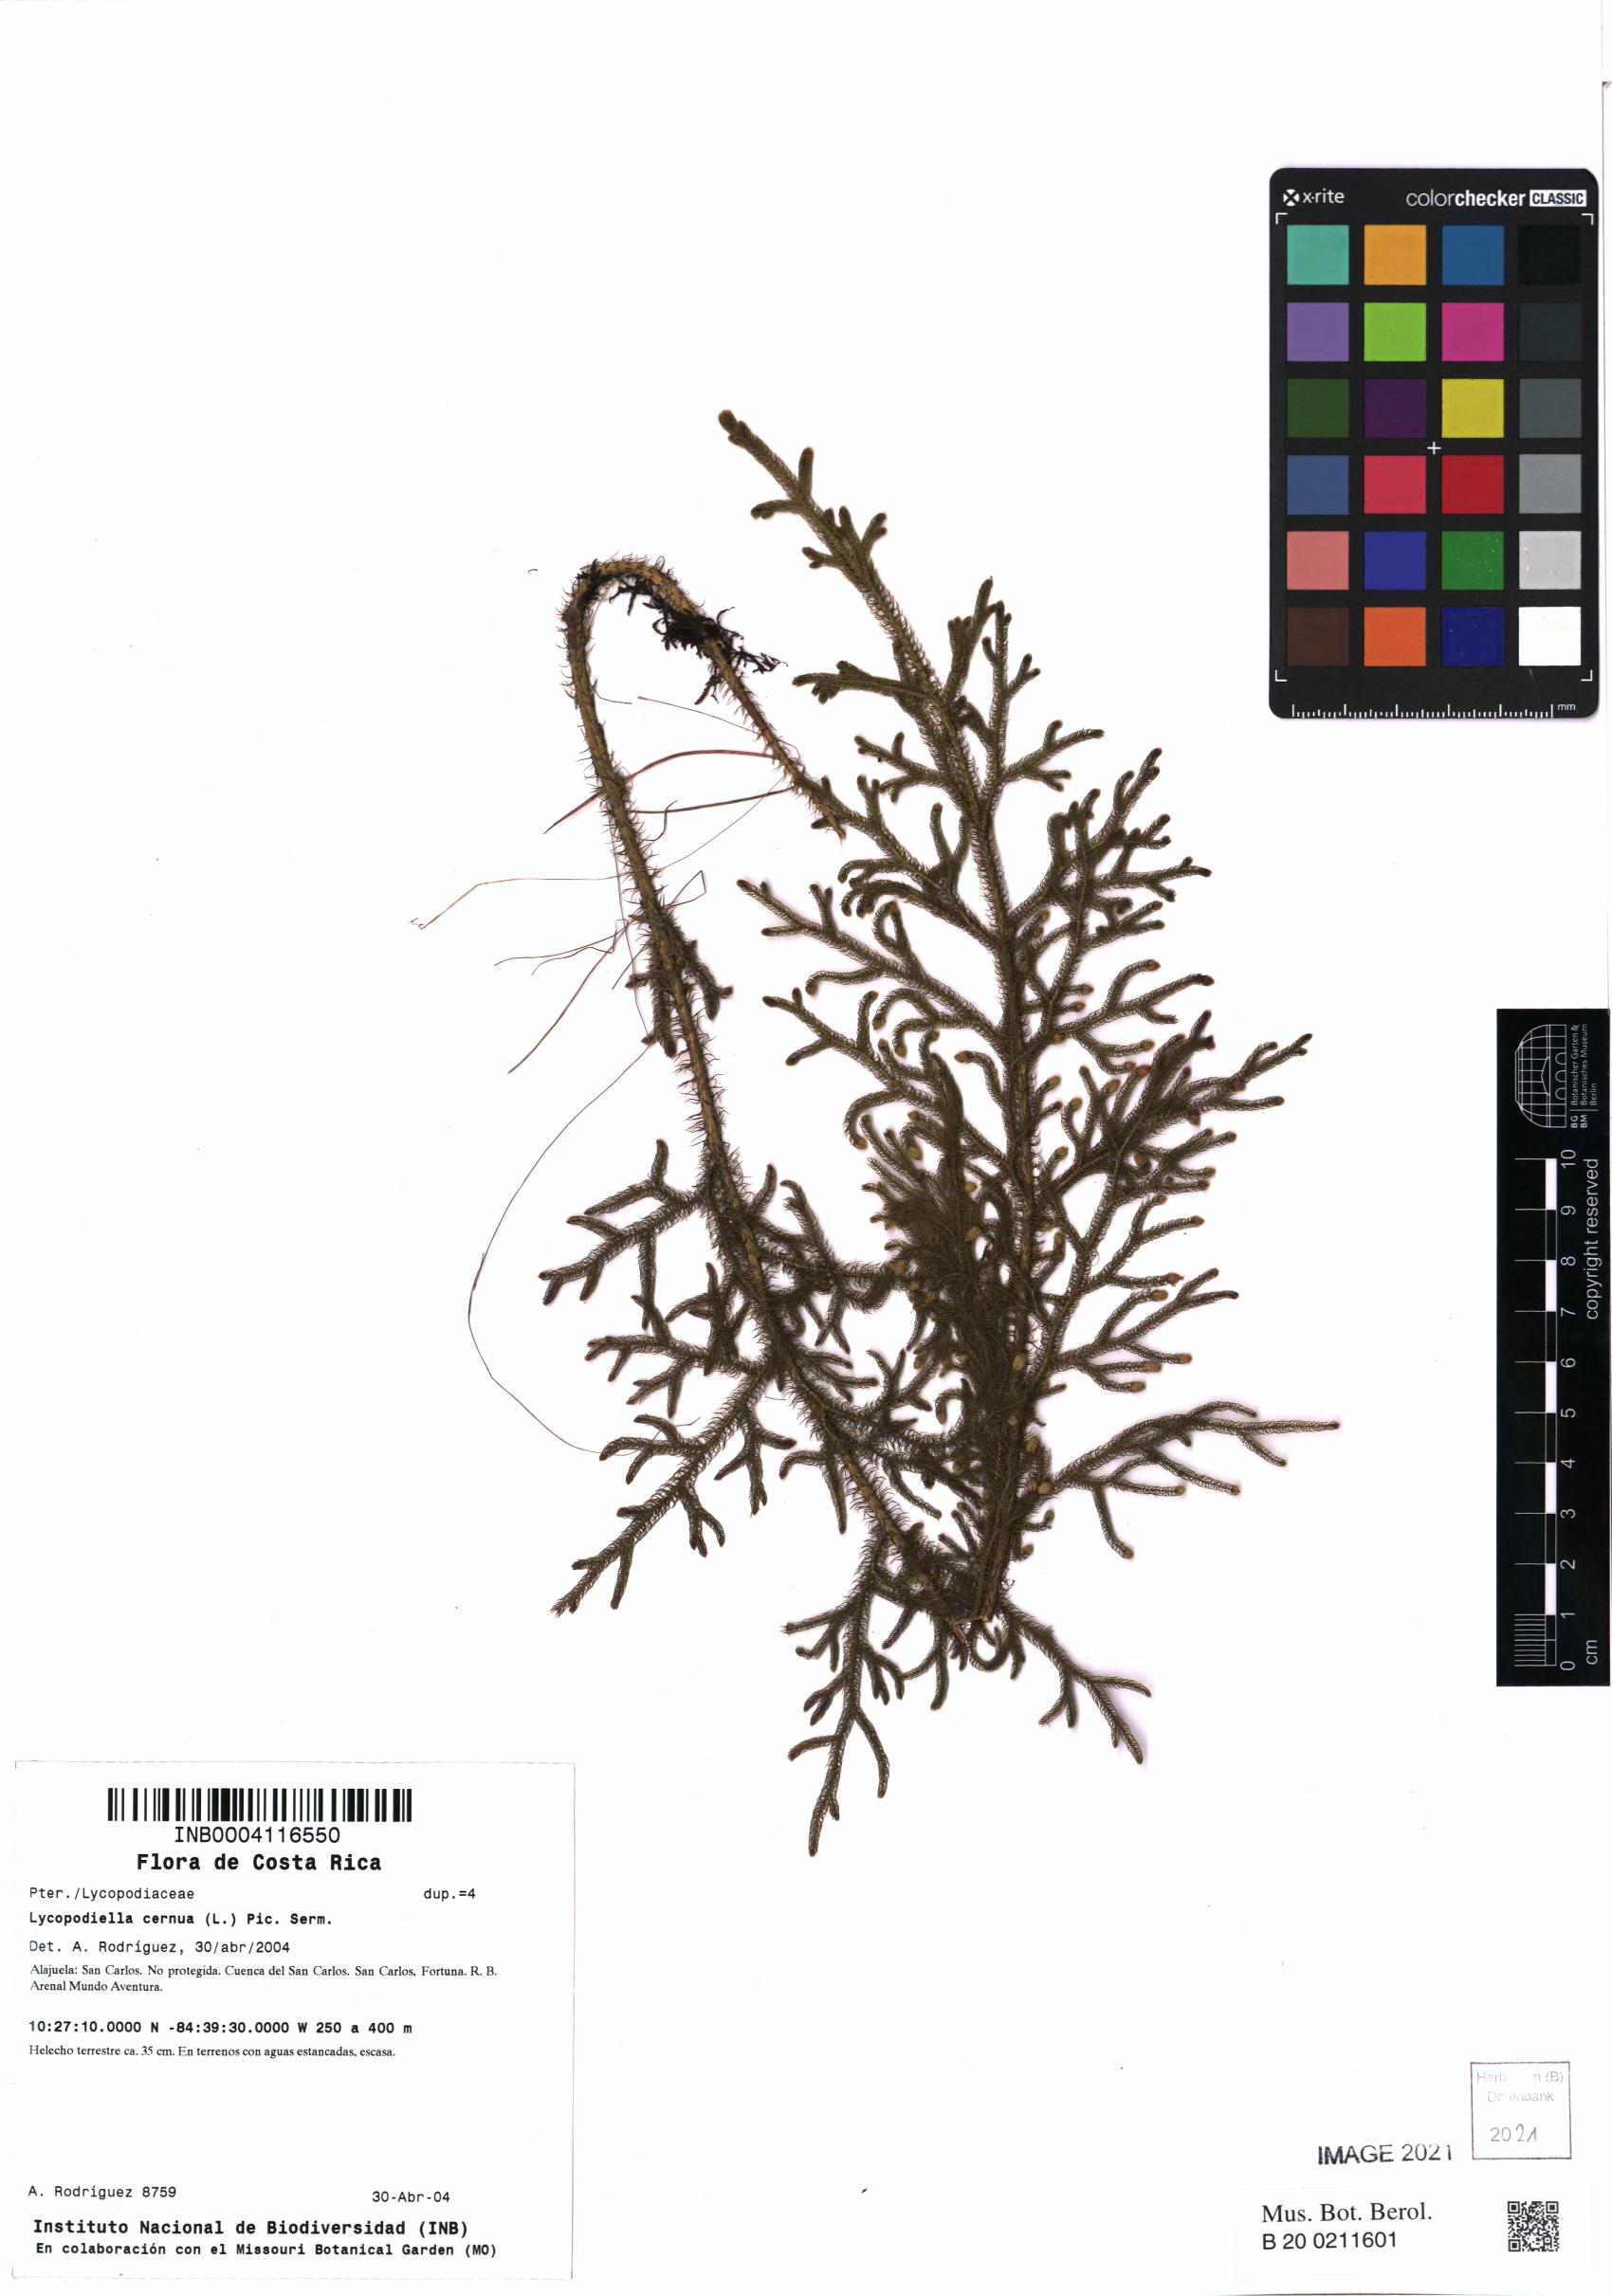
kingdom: Plantae
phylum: Tracheophyta
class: Lycopodiopsida
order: Lycopodiales
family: Lycopodiaceae
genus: Palhinhaea
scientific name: Palhinhaea cernua
